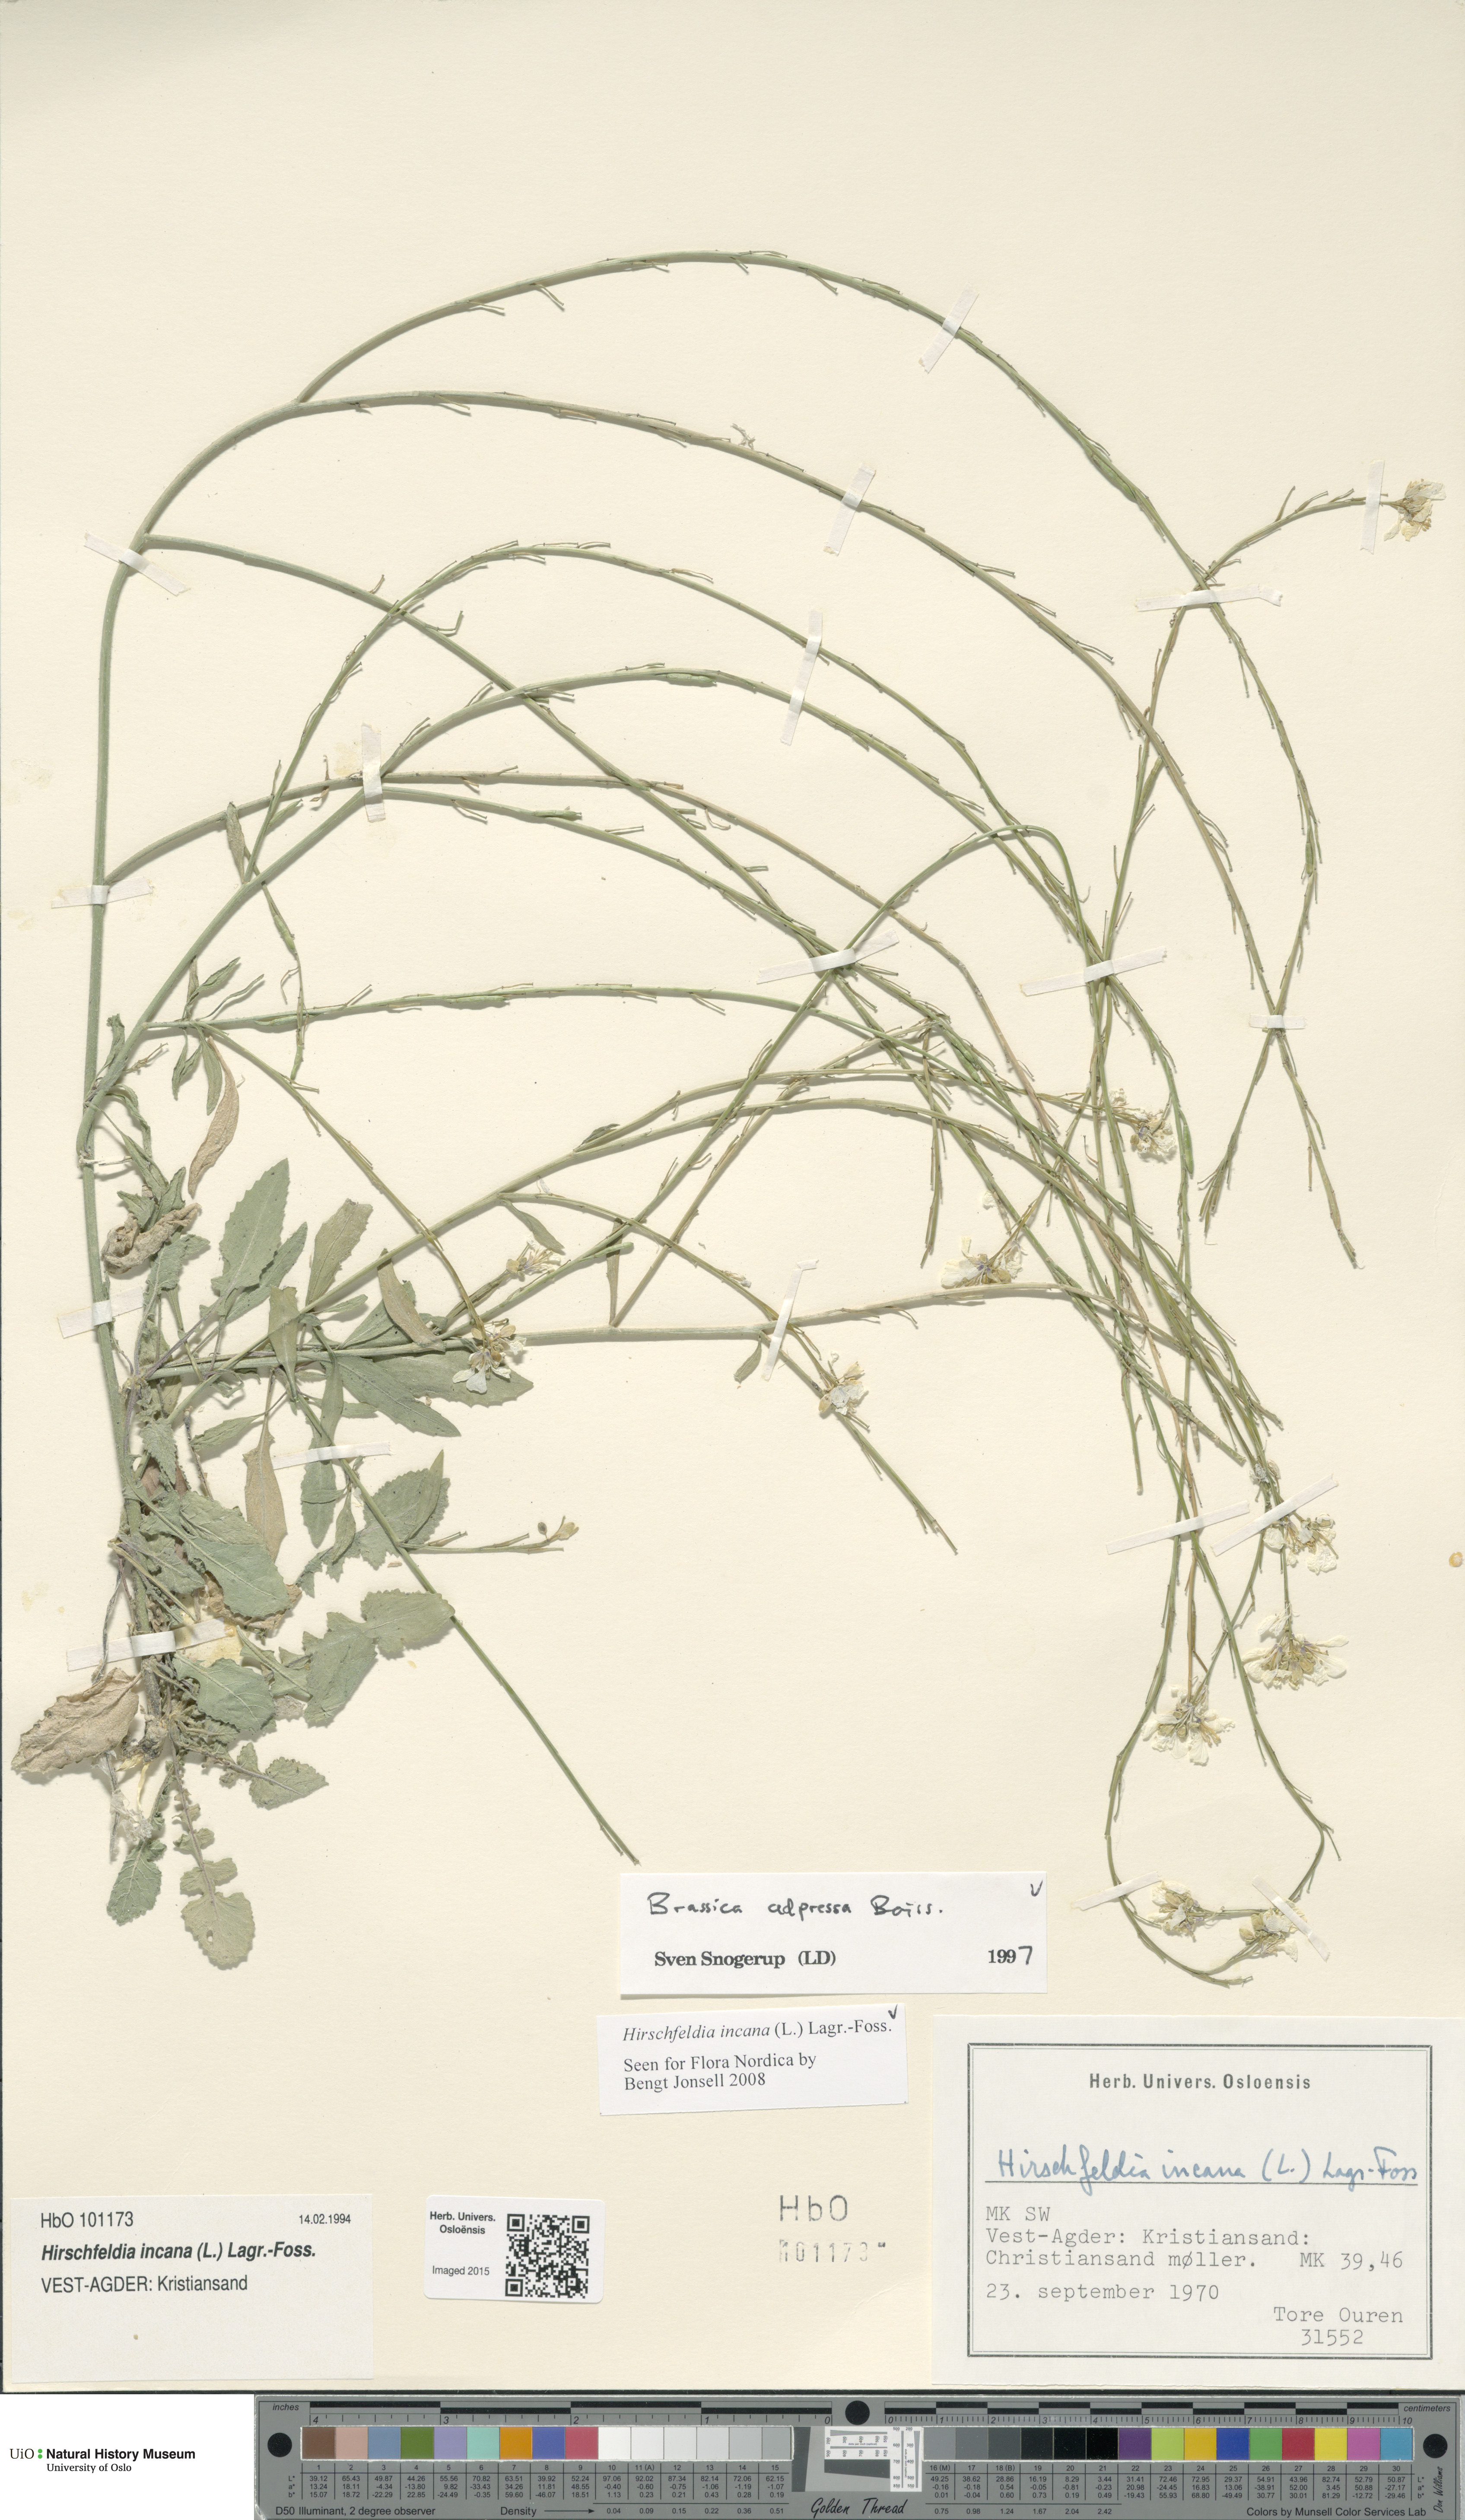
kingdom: Plantae
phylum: Tracheophyta
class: Magnoliopsida
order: Brassicales
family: Brassicaceae
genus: Hirschfeldia
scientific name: Hirschfeldia incana
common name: Hoary mustard
